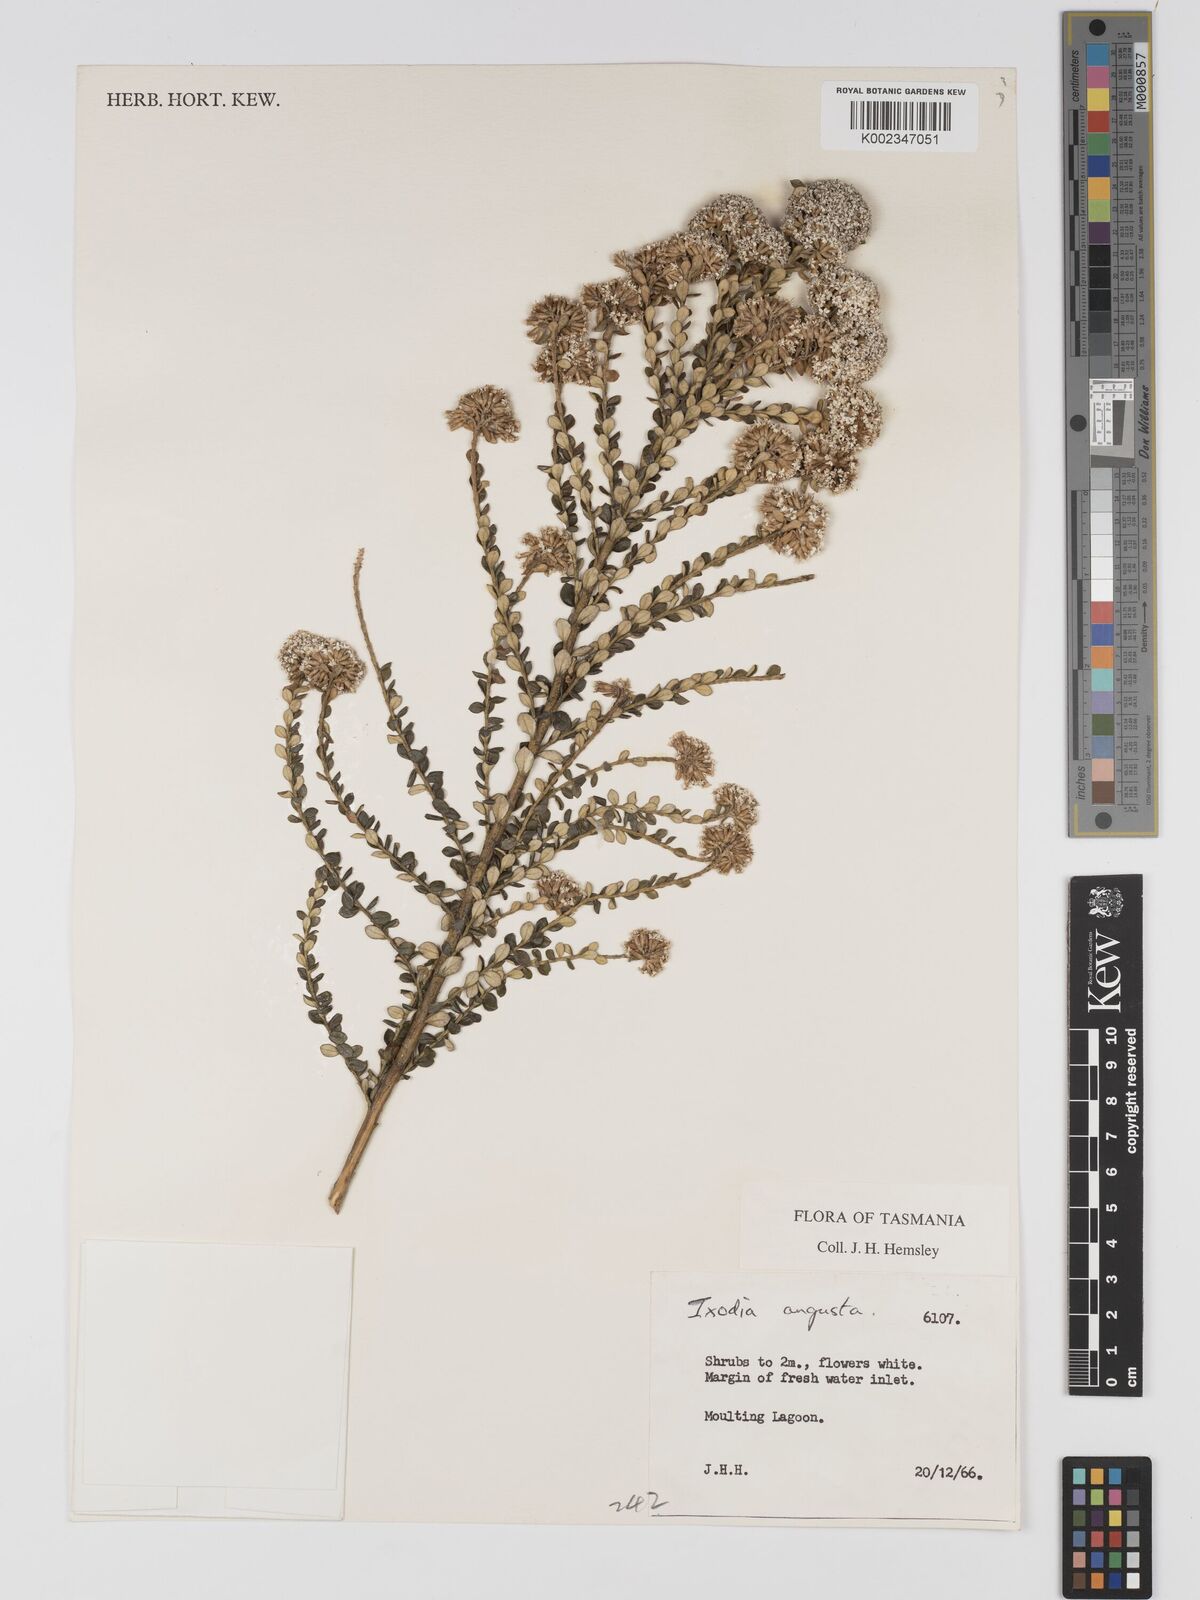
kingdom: Plantae
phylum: Tracheophyta
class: Magnoliopsida
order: Asterales
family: Asteraceae
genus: Odixia
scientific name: Odixia angusta
